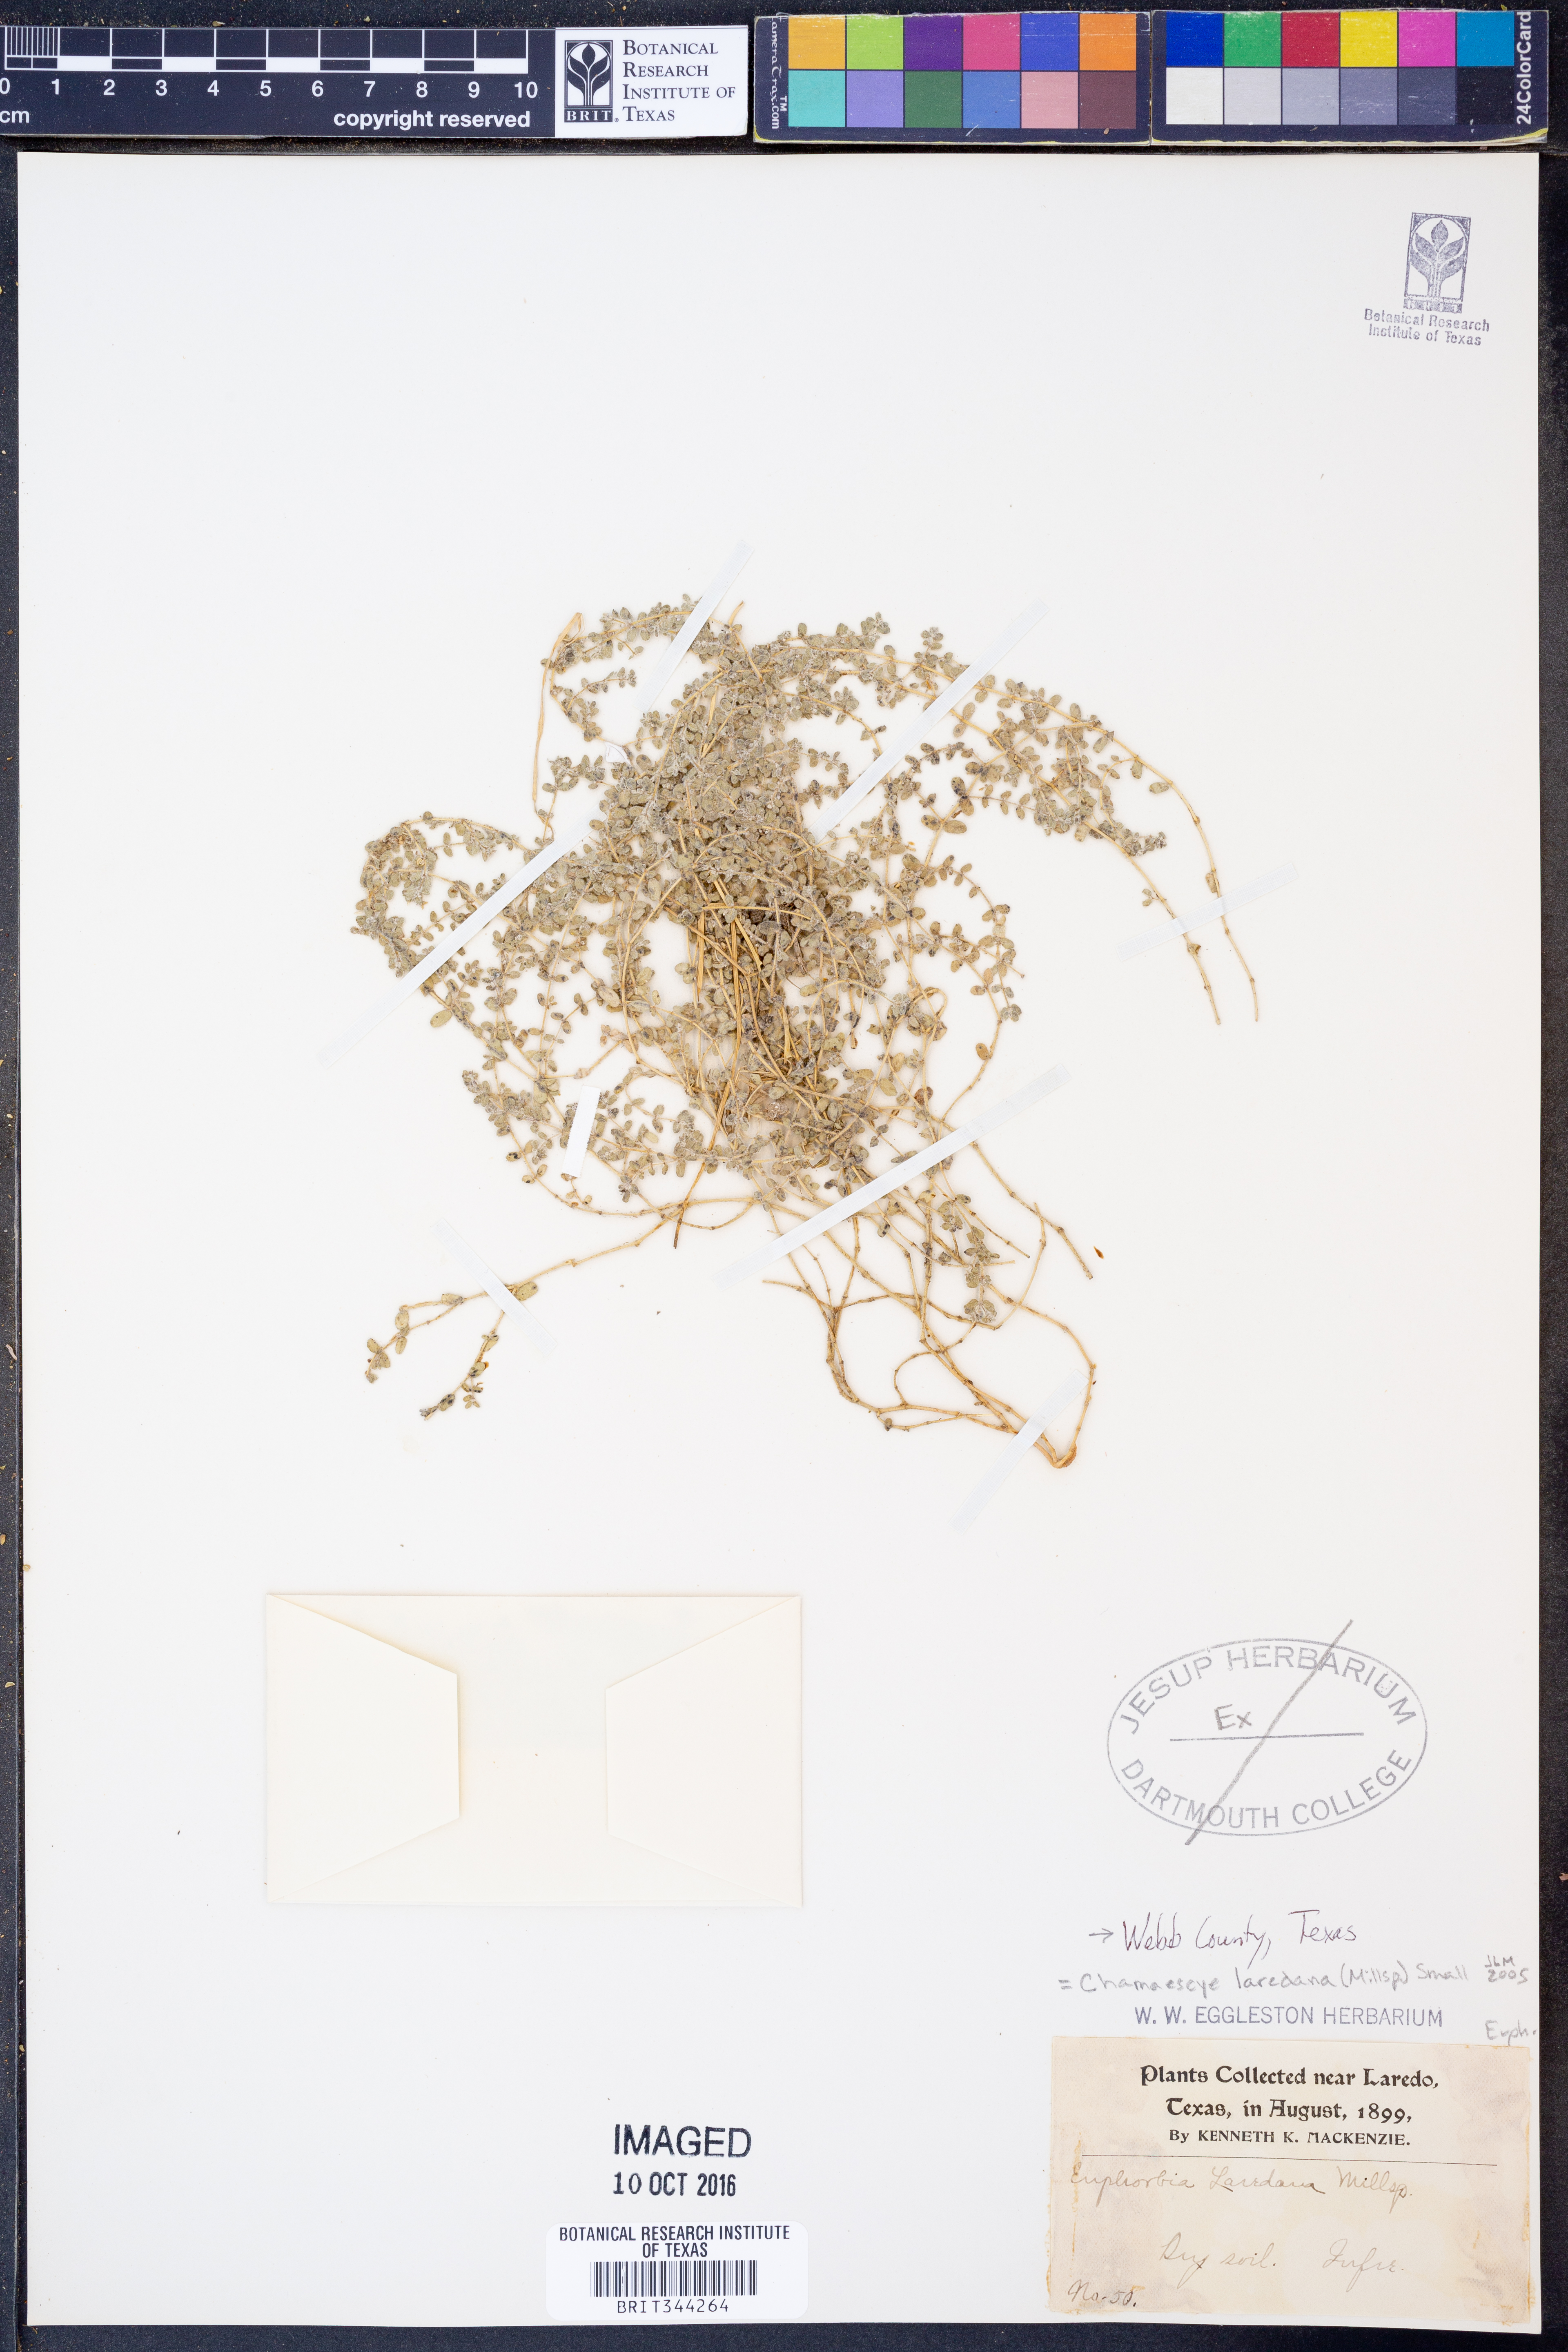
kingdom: Plantae
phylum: Tracheophyta
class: Magnoliopsida
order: Malpighiales
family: Euphorbiaceae
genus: Euphorbia
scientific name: Euphorbia laredana
